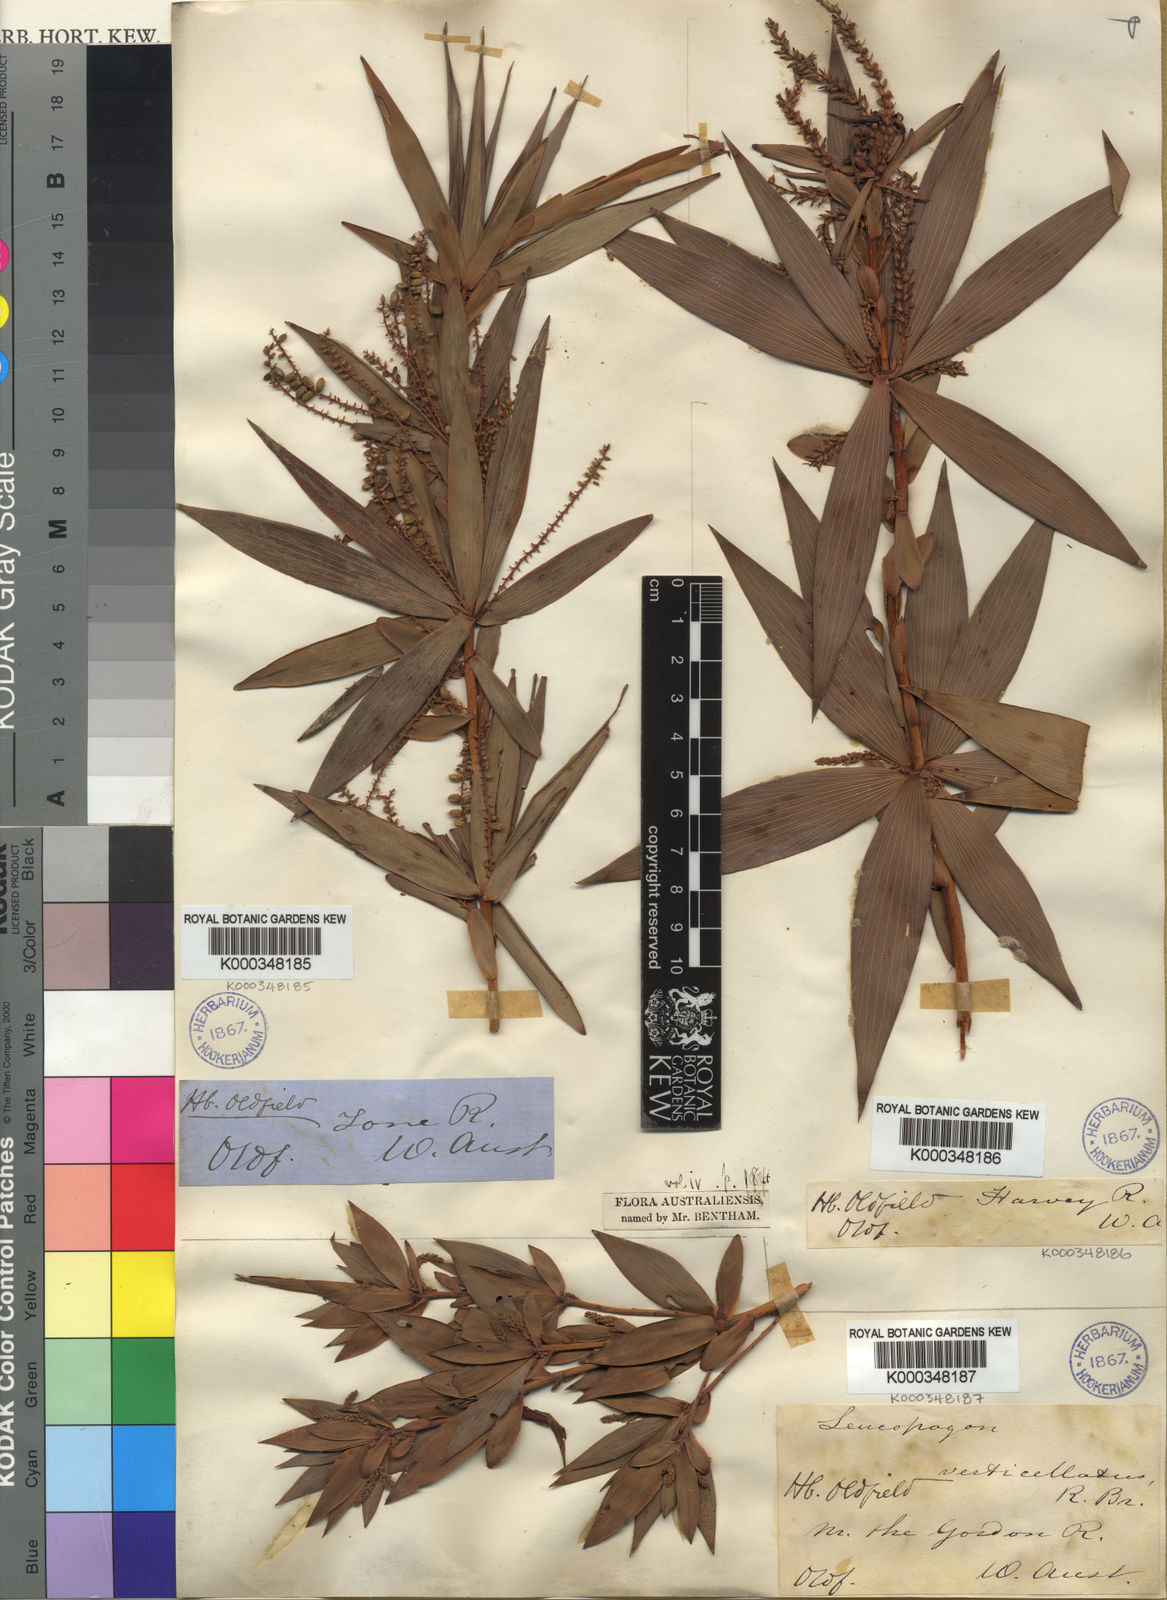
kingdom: Plantae
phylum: Tracheophyta
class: Magnoliopsida
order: Ericales
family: Ericaceae
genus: Leucopogon
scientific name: Leucopogon verticillatus
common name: Tasselshrub
